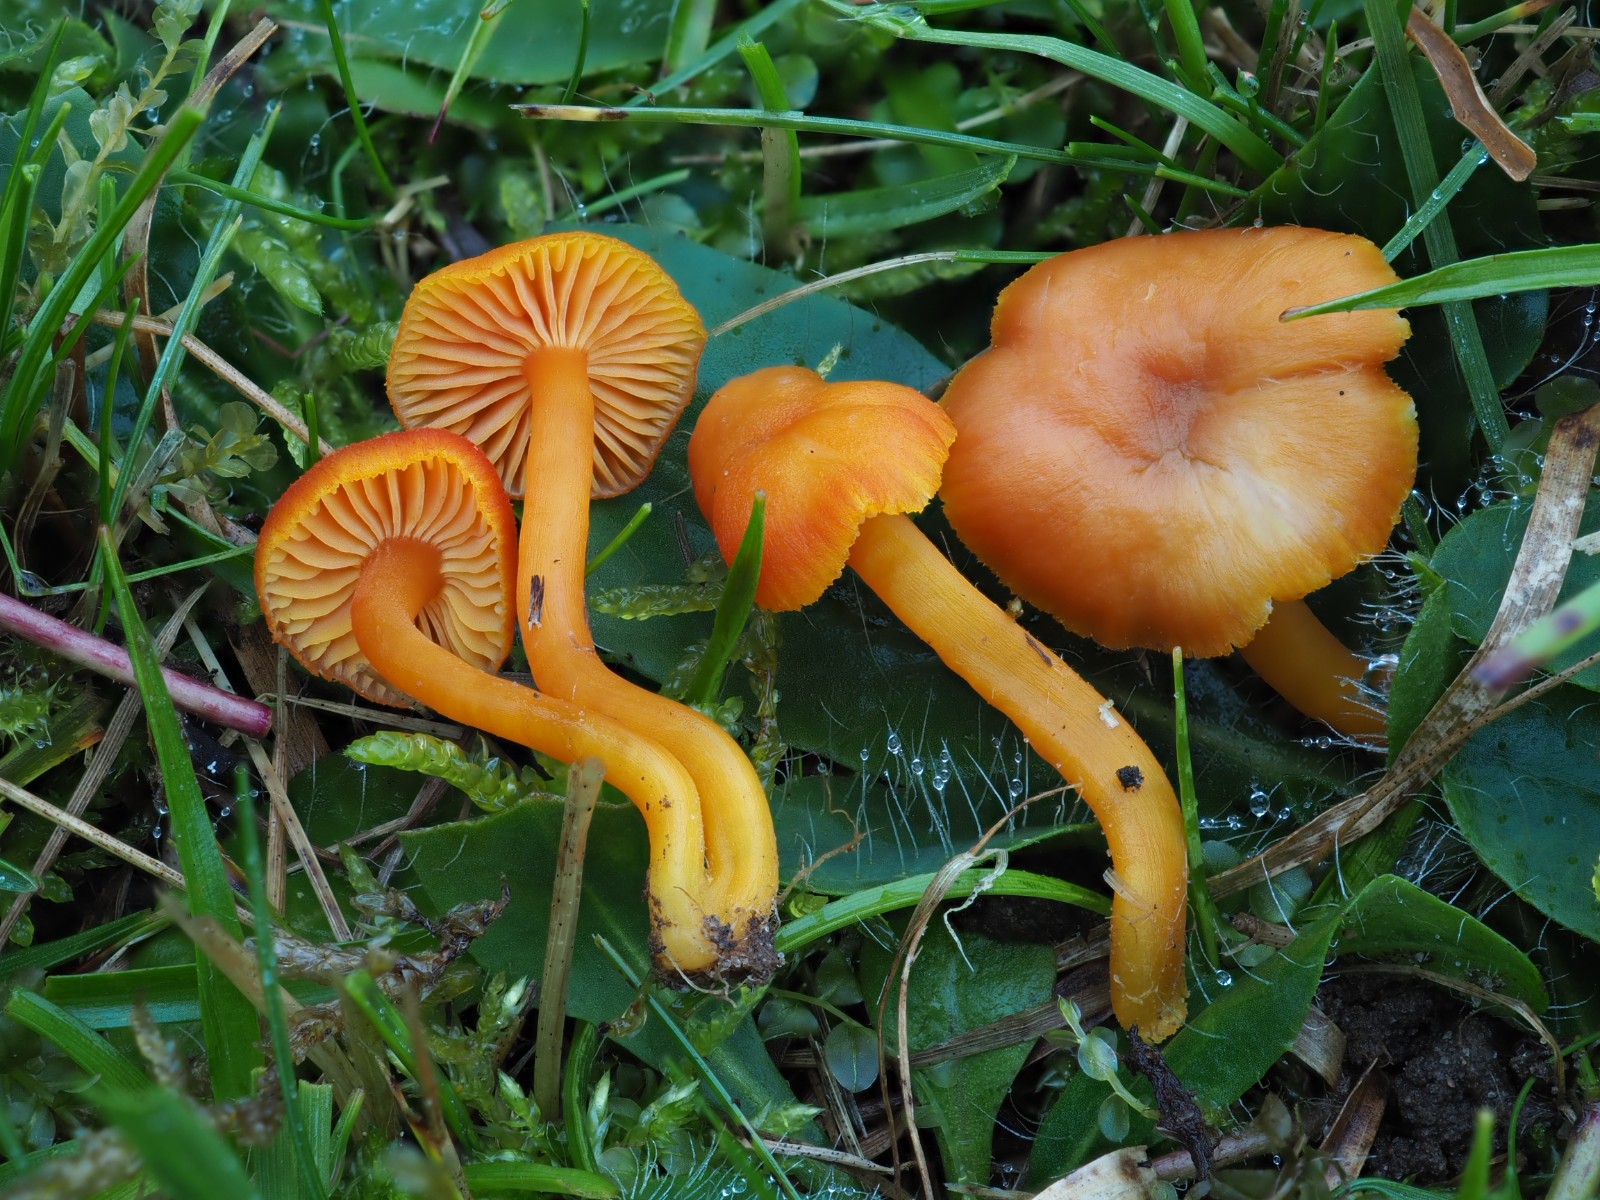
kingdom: Fungi
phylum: Basidiomycota
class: Agaricomycetes
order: Agaricales
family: Hygrophoraceae
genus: Hygrocybe
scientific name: Hygrocybe
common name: vokshat
